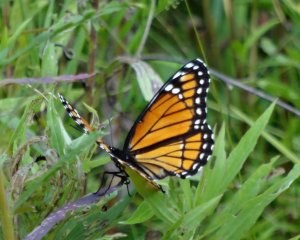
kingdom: Animalia
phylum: Arthropoda
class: Insecta
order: Lepidoptera
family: Nymphalidae
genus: Limenitis
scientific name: Limenitis archippus
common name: Viceroy
